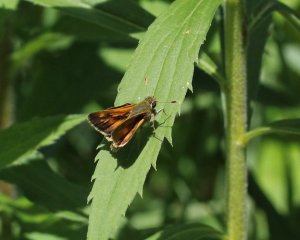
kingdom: Animalia
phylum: Arthropoda
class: Insecta
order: Lepidoptera
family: Hesperiidae
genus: Polites
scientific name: Polites
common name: Long Dash Skipper
